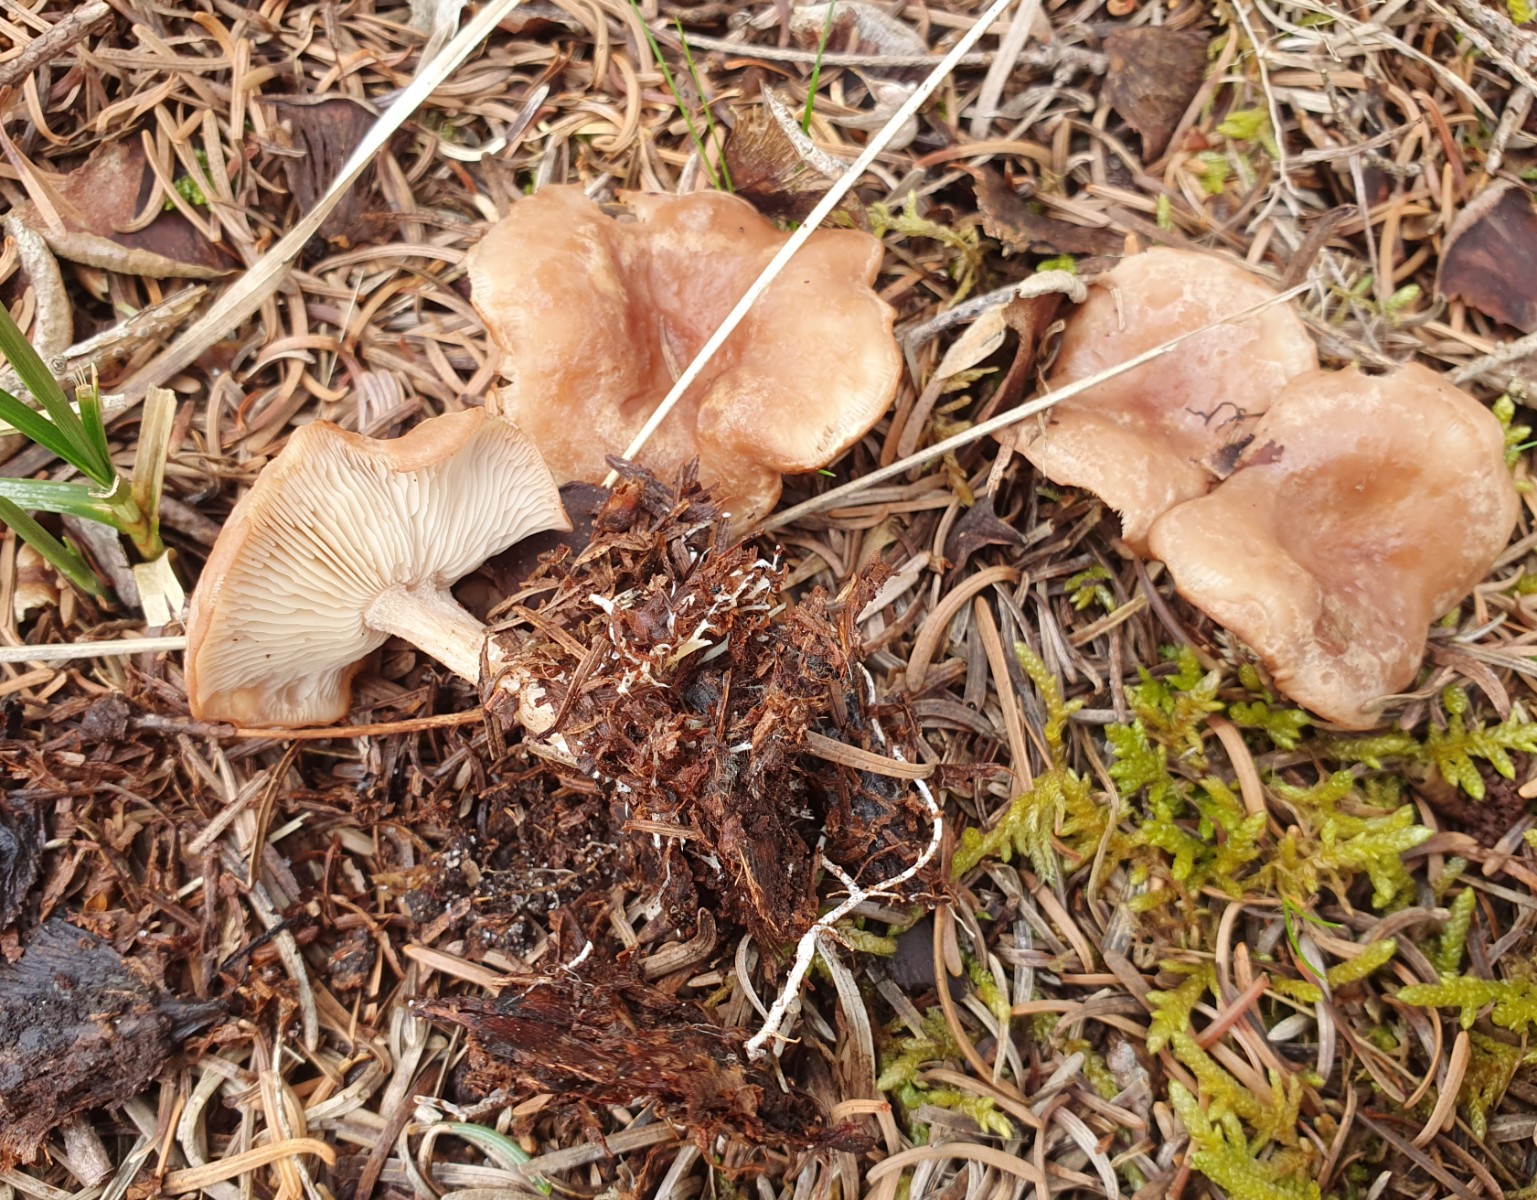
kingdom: Fungi
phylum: Basidiomycota
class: Agaricomycetes
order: Agaricales
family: Tricholomataceae
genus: Rhizocybe
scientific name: Rhizocybe vermicularis
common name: hyfestrengs-tragthat
